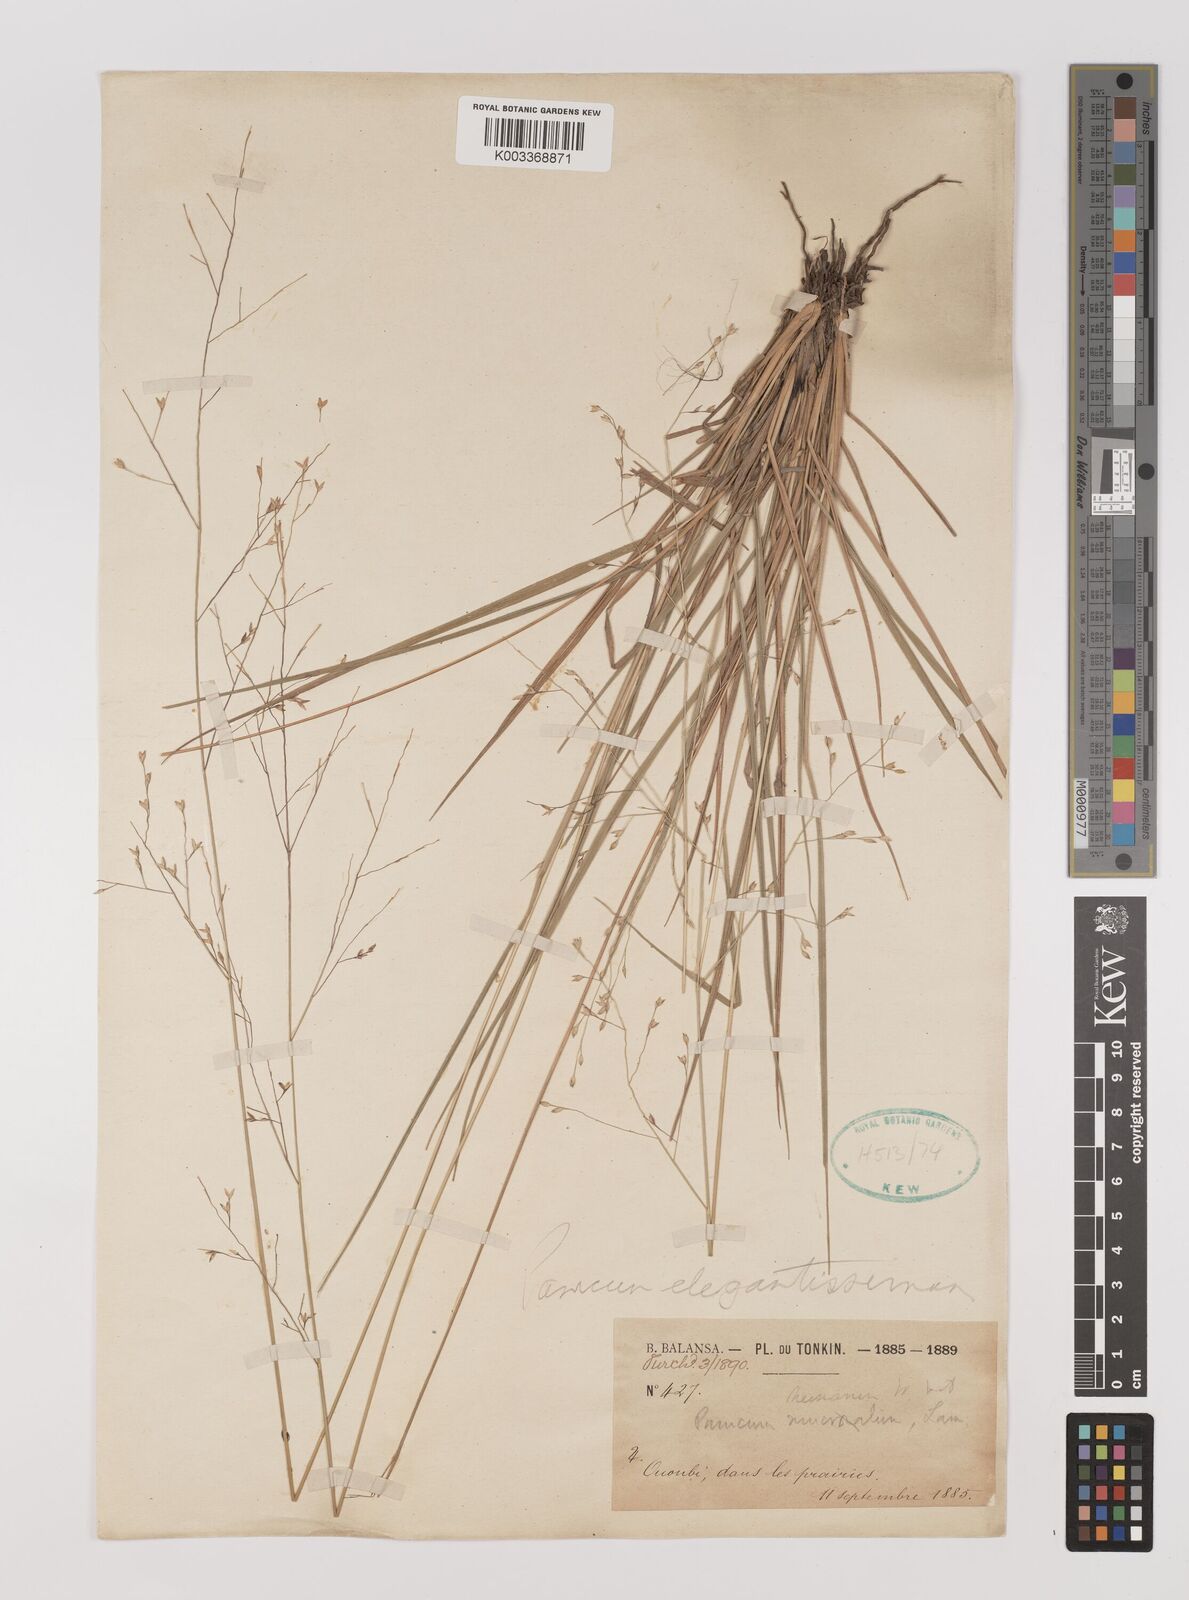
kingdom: Plantae
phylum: Tracheophyta
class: Liliopsida
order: Poales
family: Poaceae
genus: Panicum
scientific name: Panicum elegantissimum
